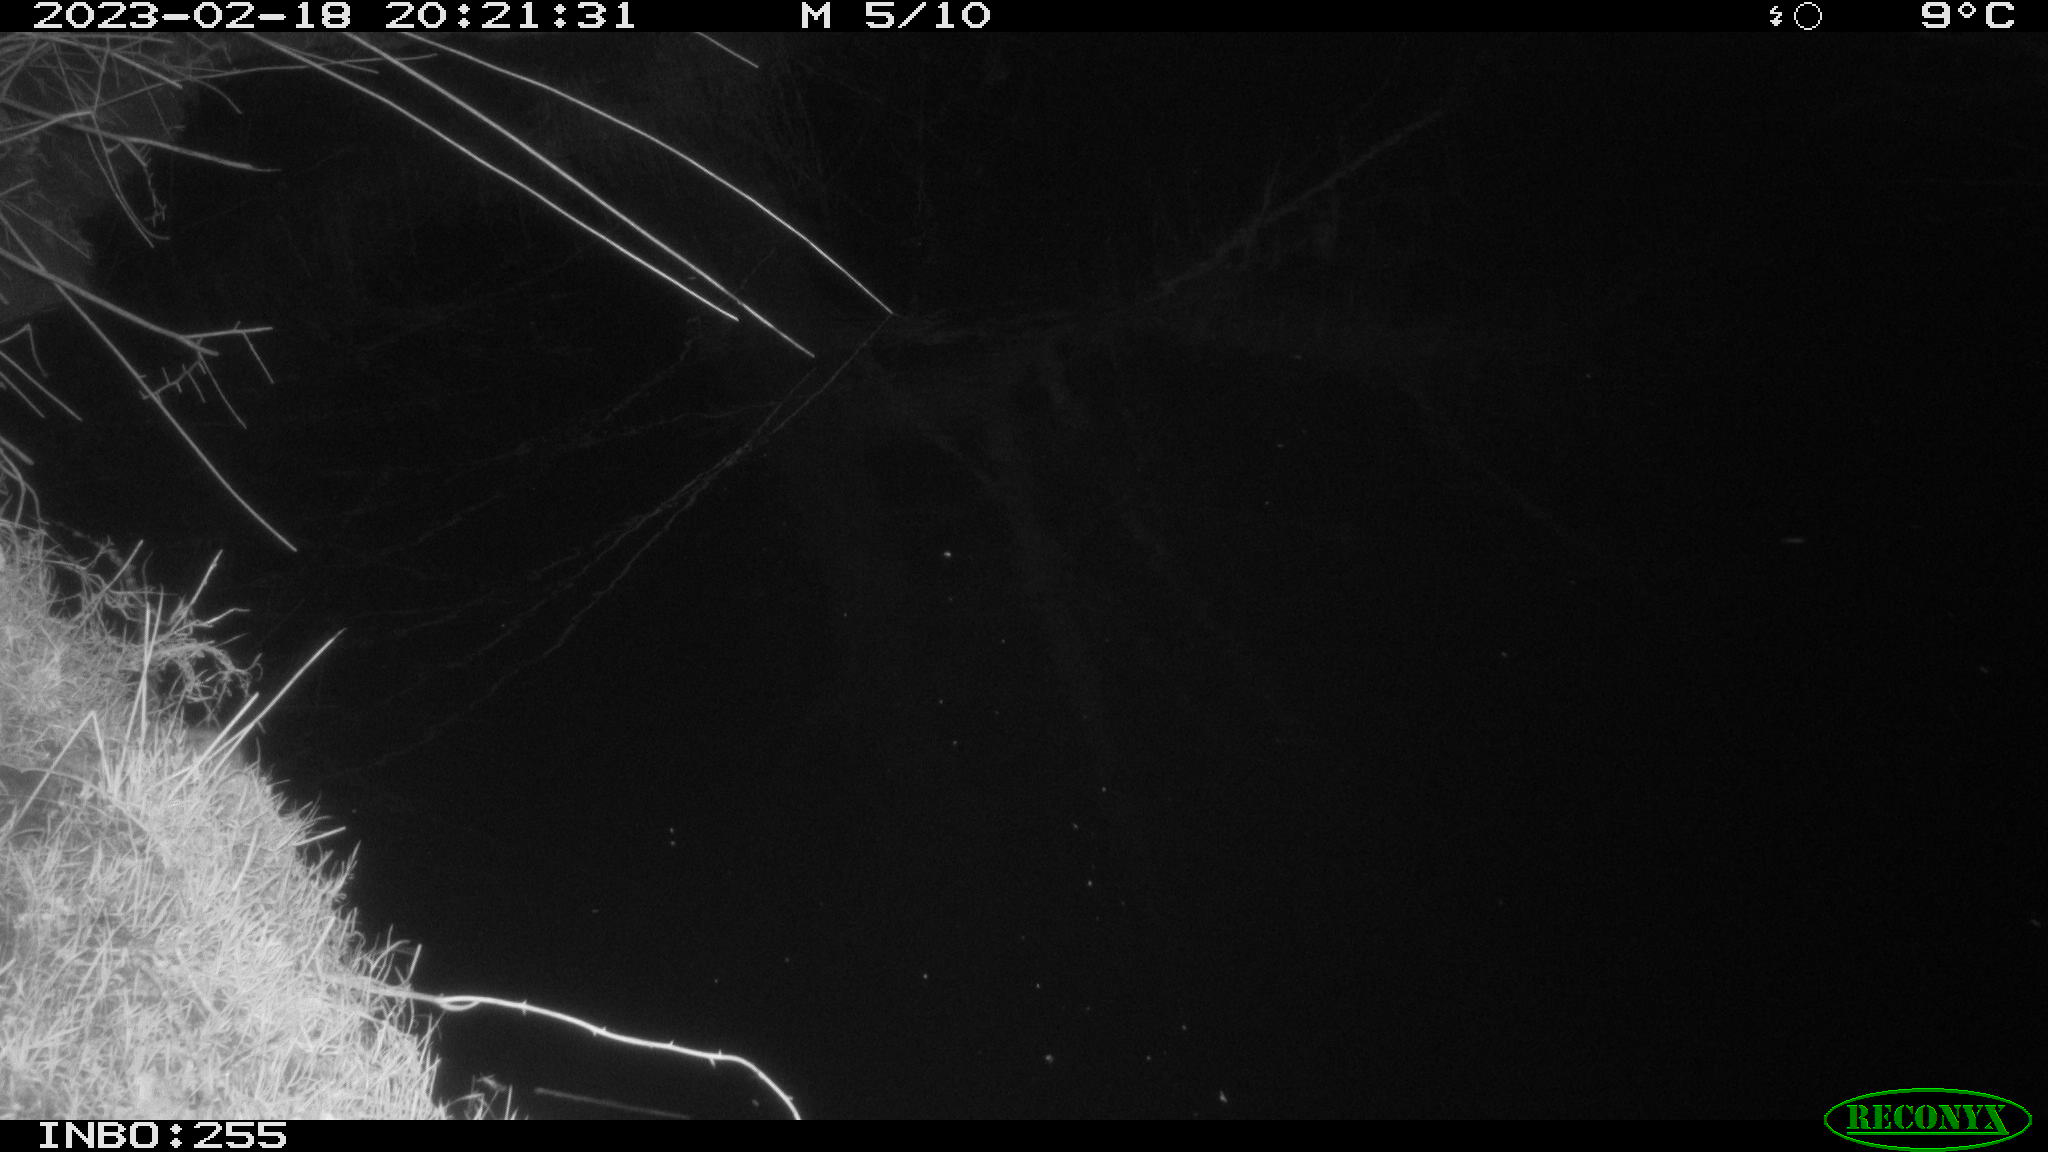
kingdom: Animalia
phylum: Chordata
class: Mammalia
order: Rodentia
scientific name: Rodentia
